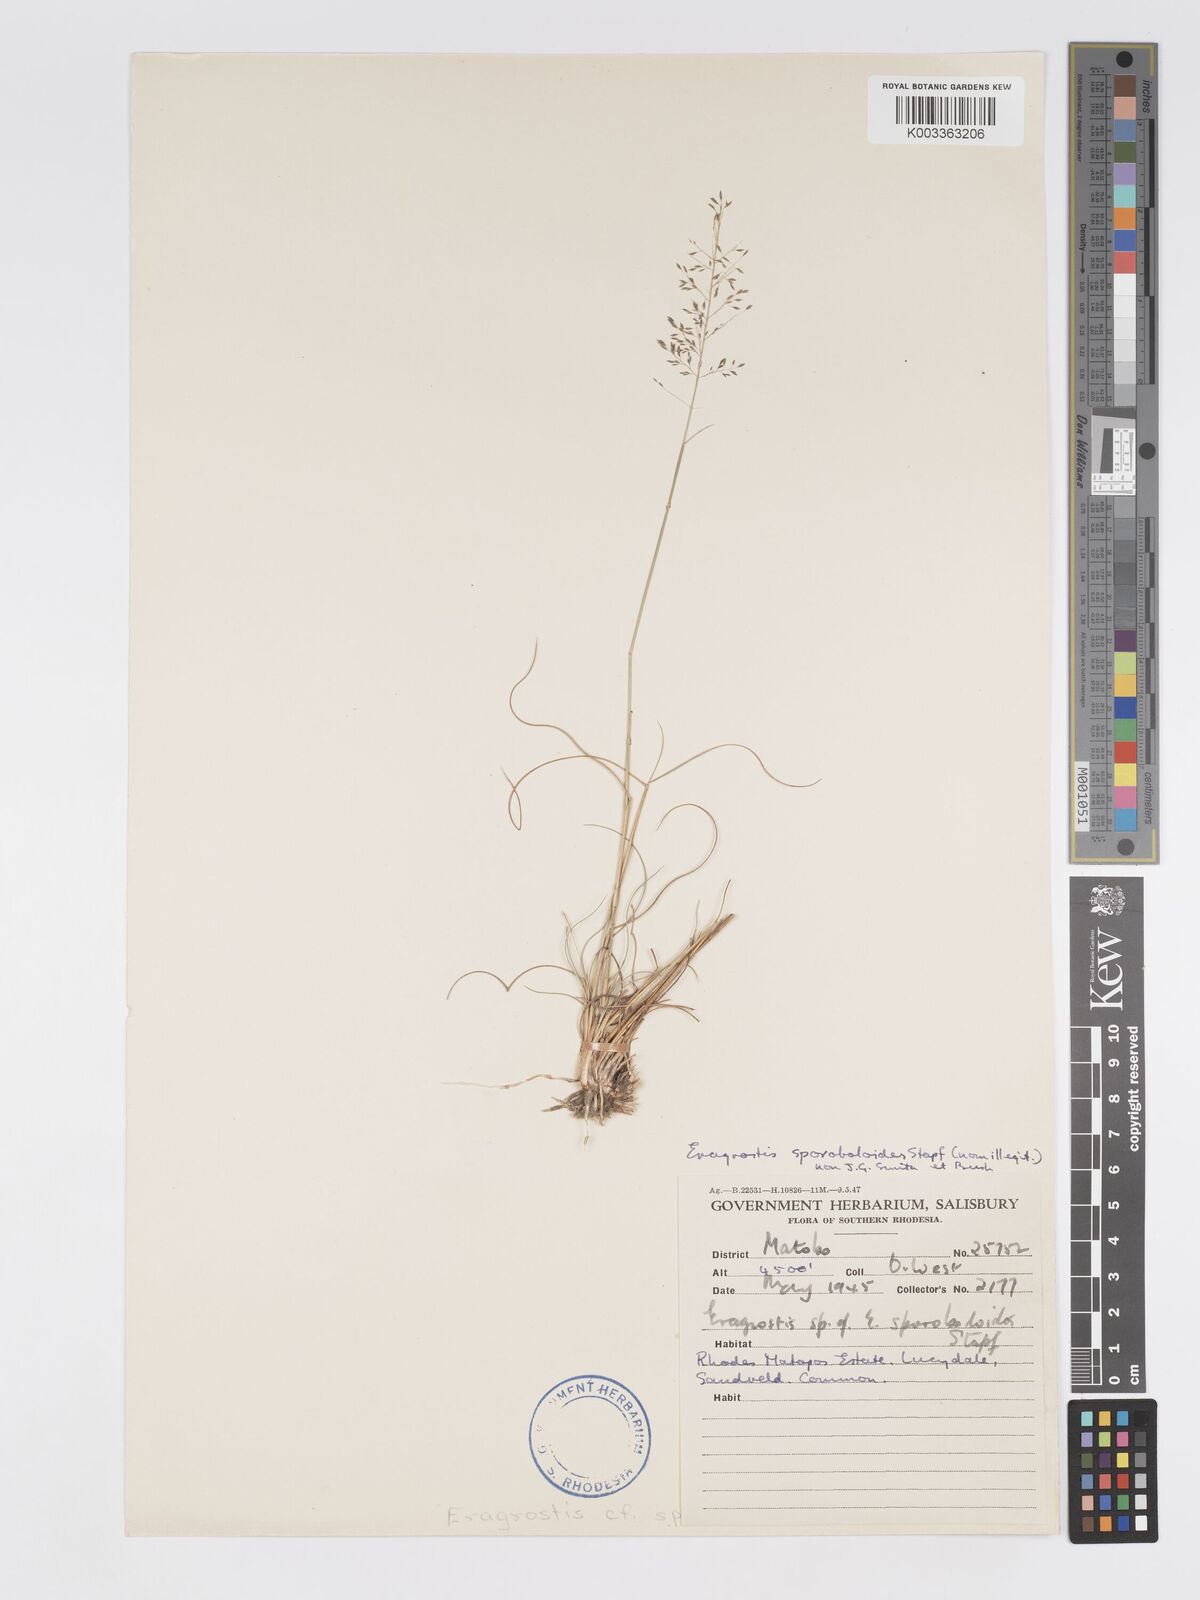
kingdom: Plantae
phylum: Tracheophyta
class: Liliopsida
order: Poales
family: Poaceae
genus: Eragrostis
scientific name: Eragrostis stapfii
